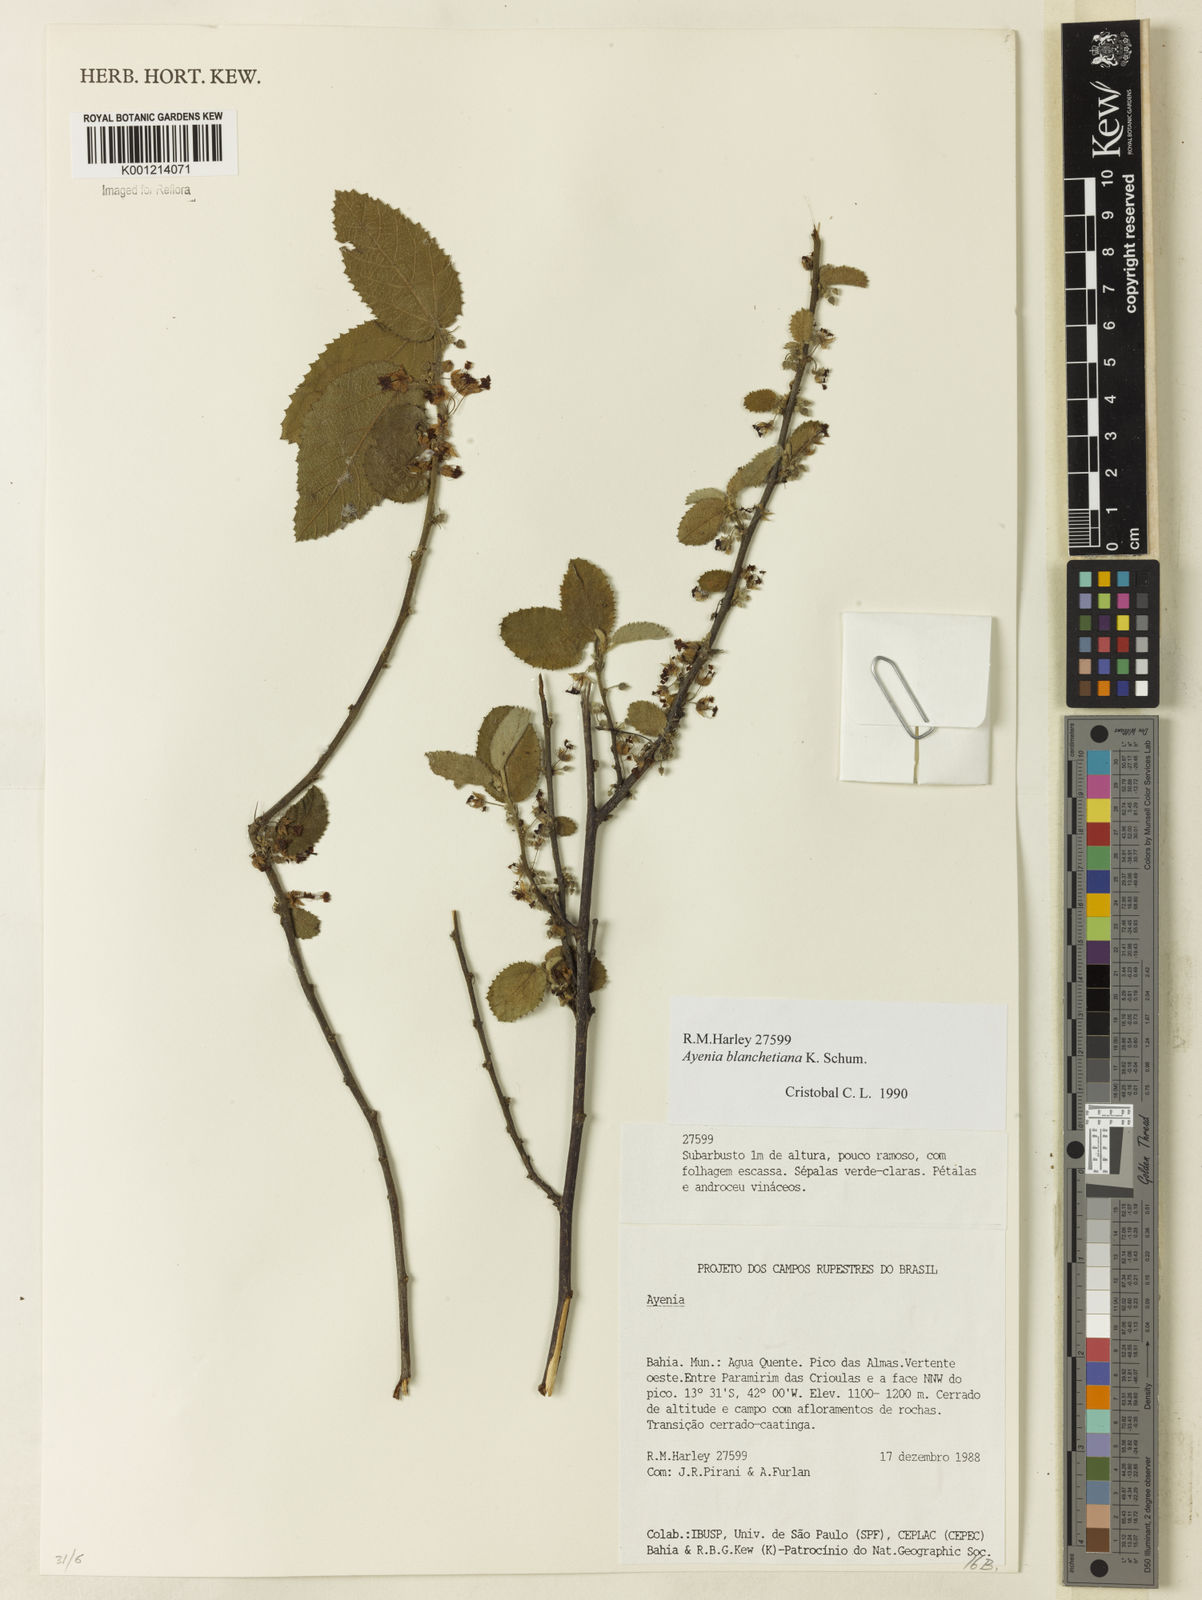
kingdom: Plantae
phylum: Tracheophyta
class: Magnoliopsida
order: Malvales
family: Malvaceae
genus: Ayenia
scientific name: Ayenia blanchetiana
